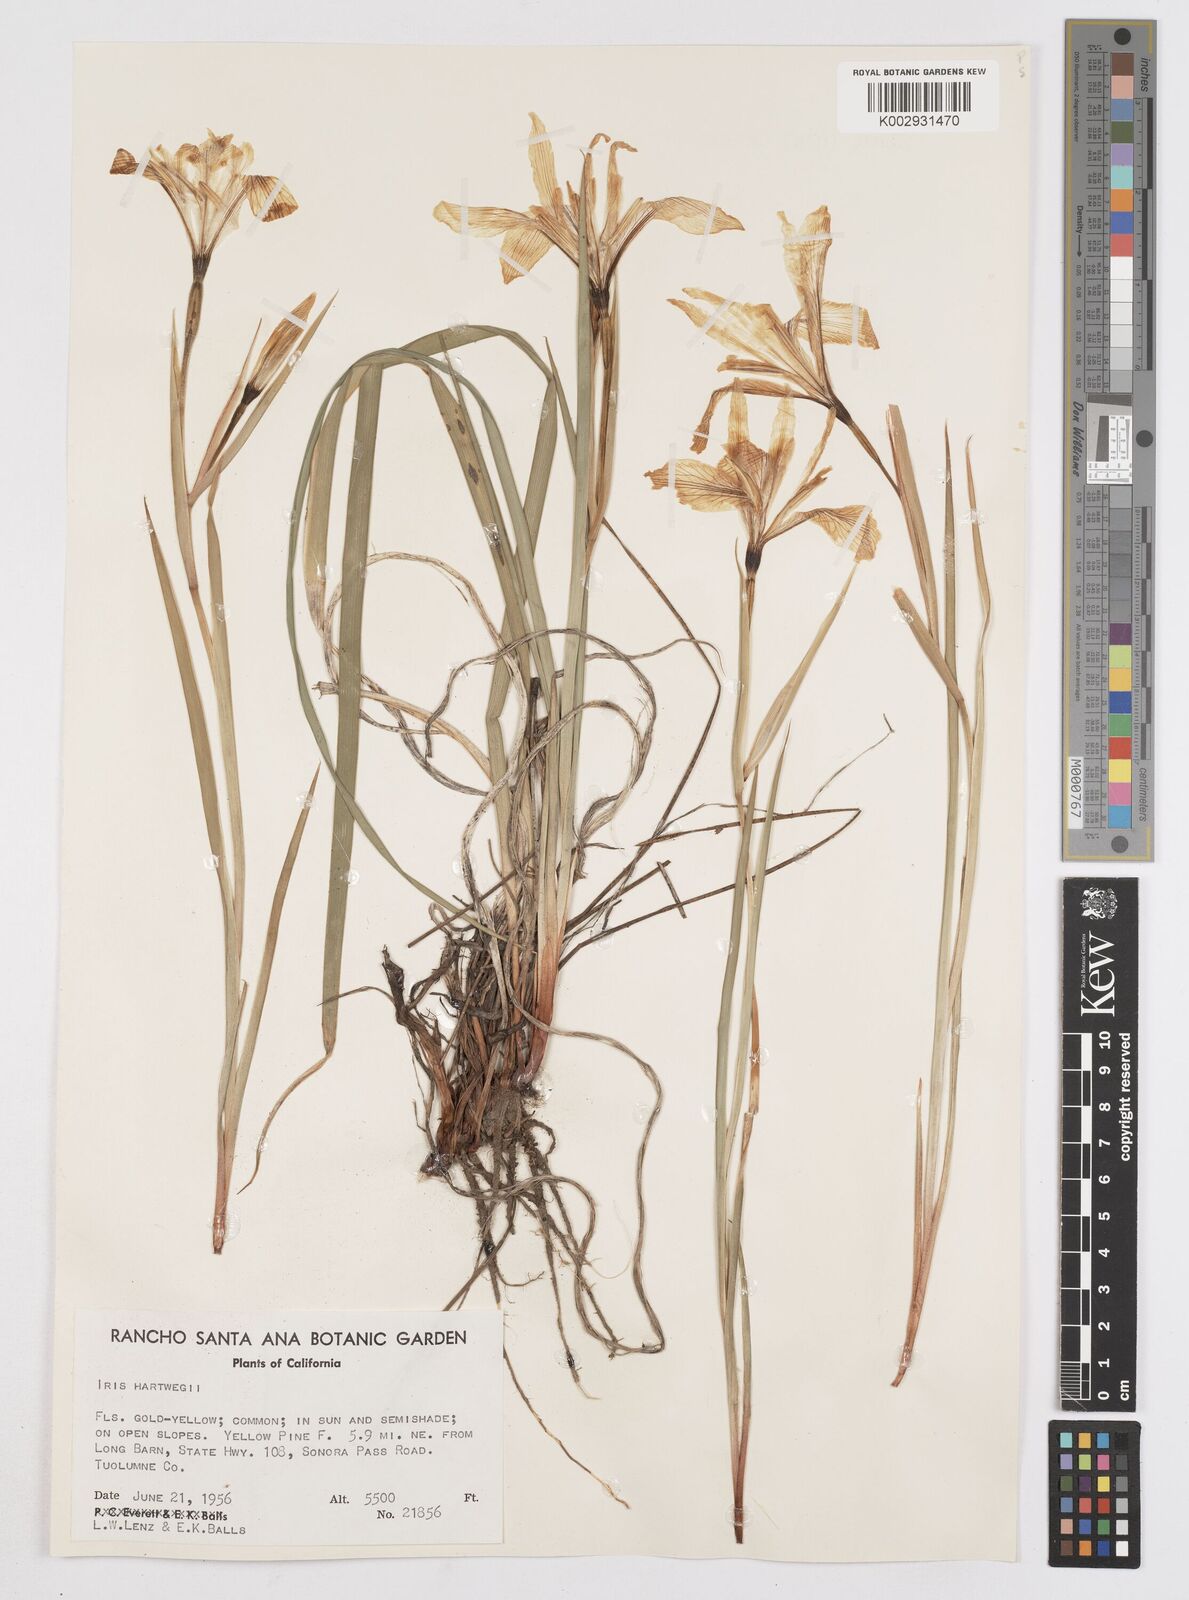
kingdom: Plantae
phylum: Tracheophyta
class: Liliopsida
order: Asparagales
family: Iridaceae
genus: Iris
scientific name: Iris hartwegii
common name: Sierra iris
